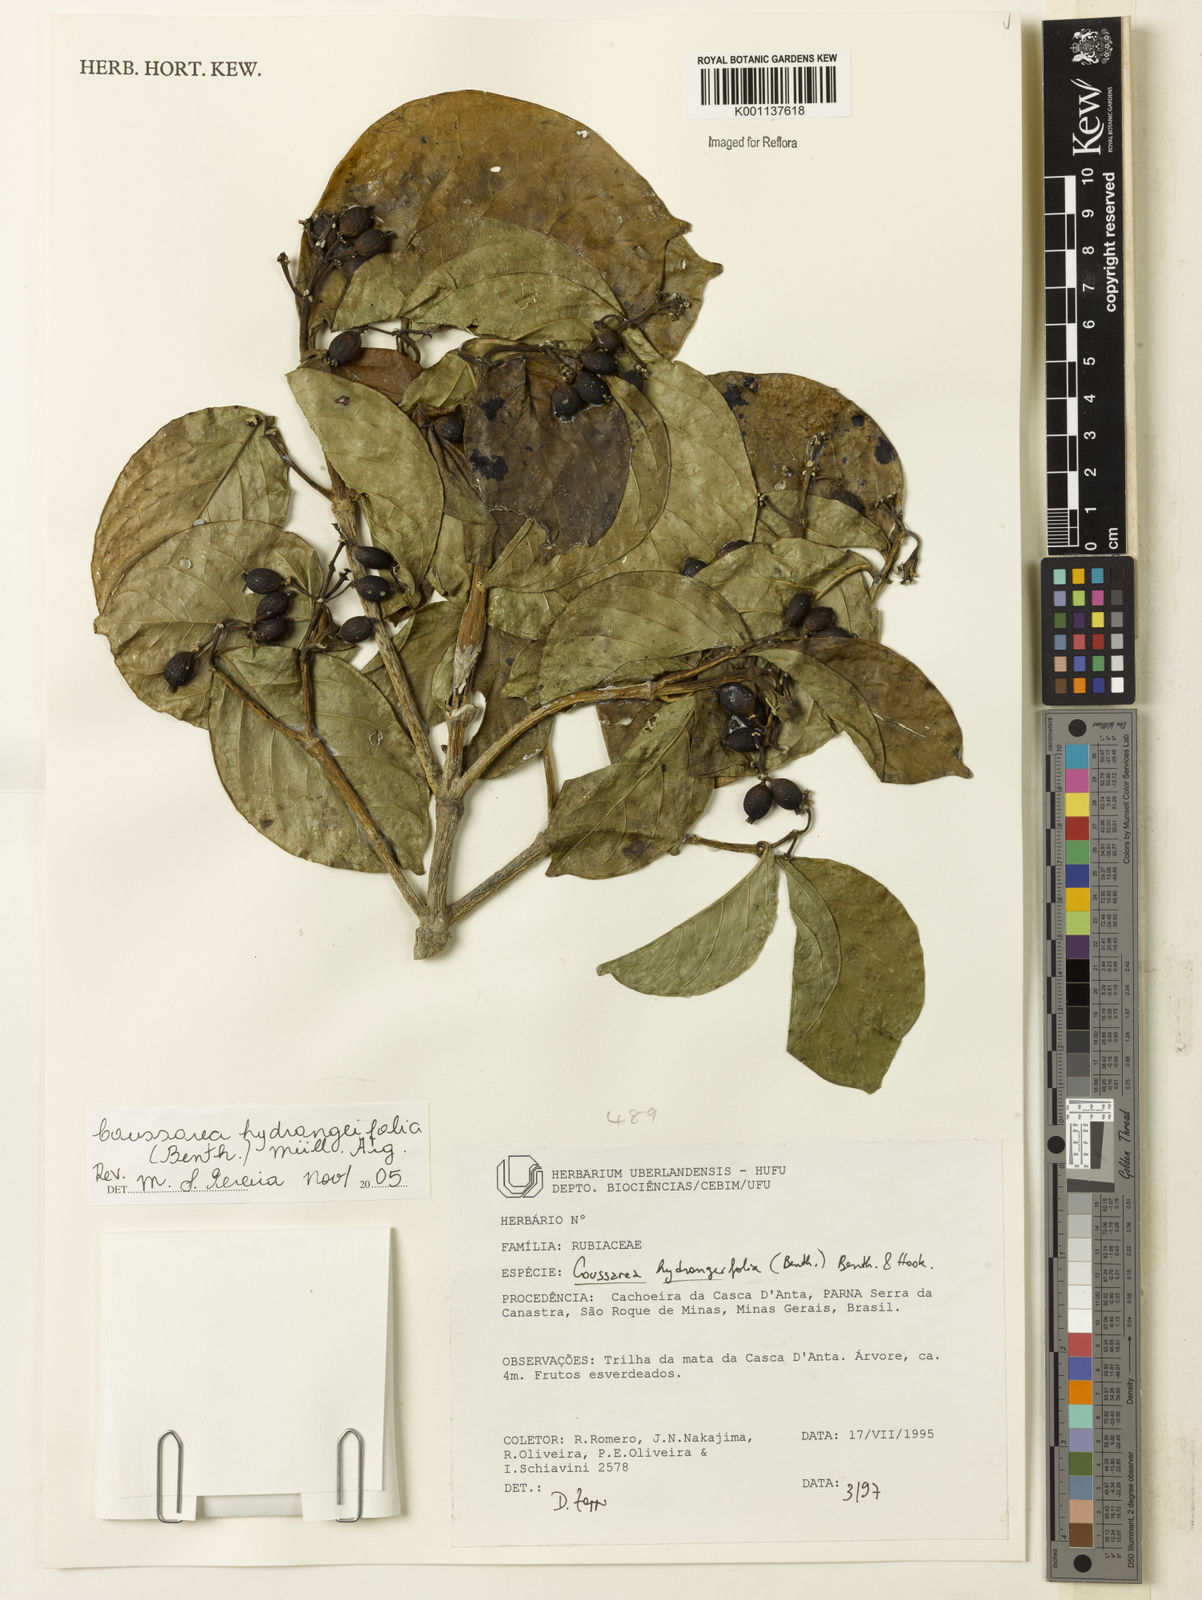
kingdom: Plantae
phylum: Tracheophyta
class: Magnoliopsida
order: Gentianales
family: Rubiaceae
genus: Coussarea
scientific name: Coussarea
